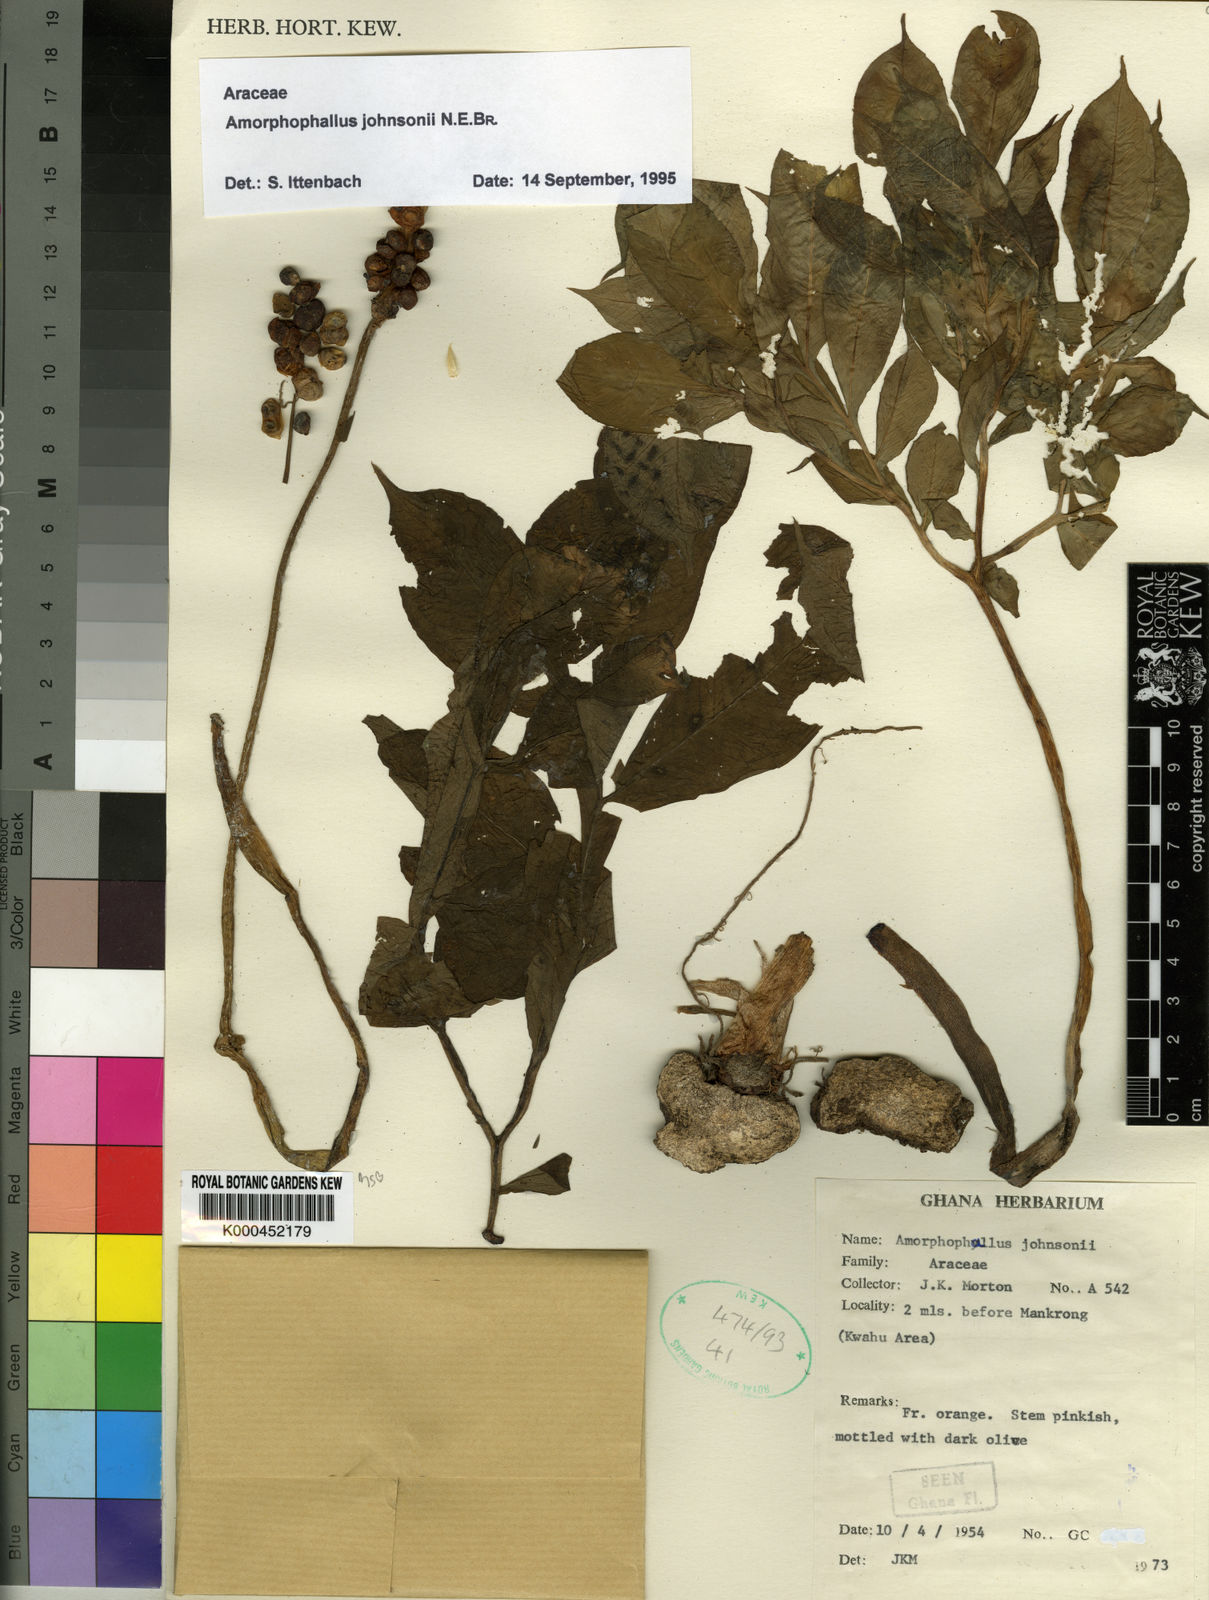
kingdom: Plantae
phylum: Tracheophyta
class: Liliopsida
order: Alismatales
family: Araceae
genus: Amorphophallus
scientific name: Amorphophallus johnsonii
